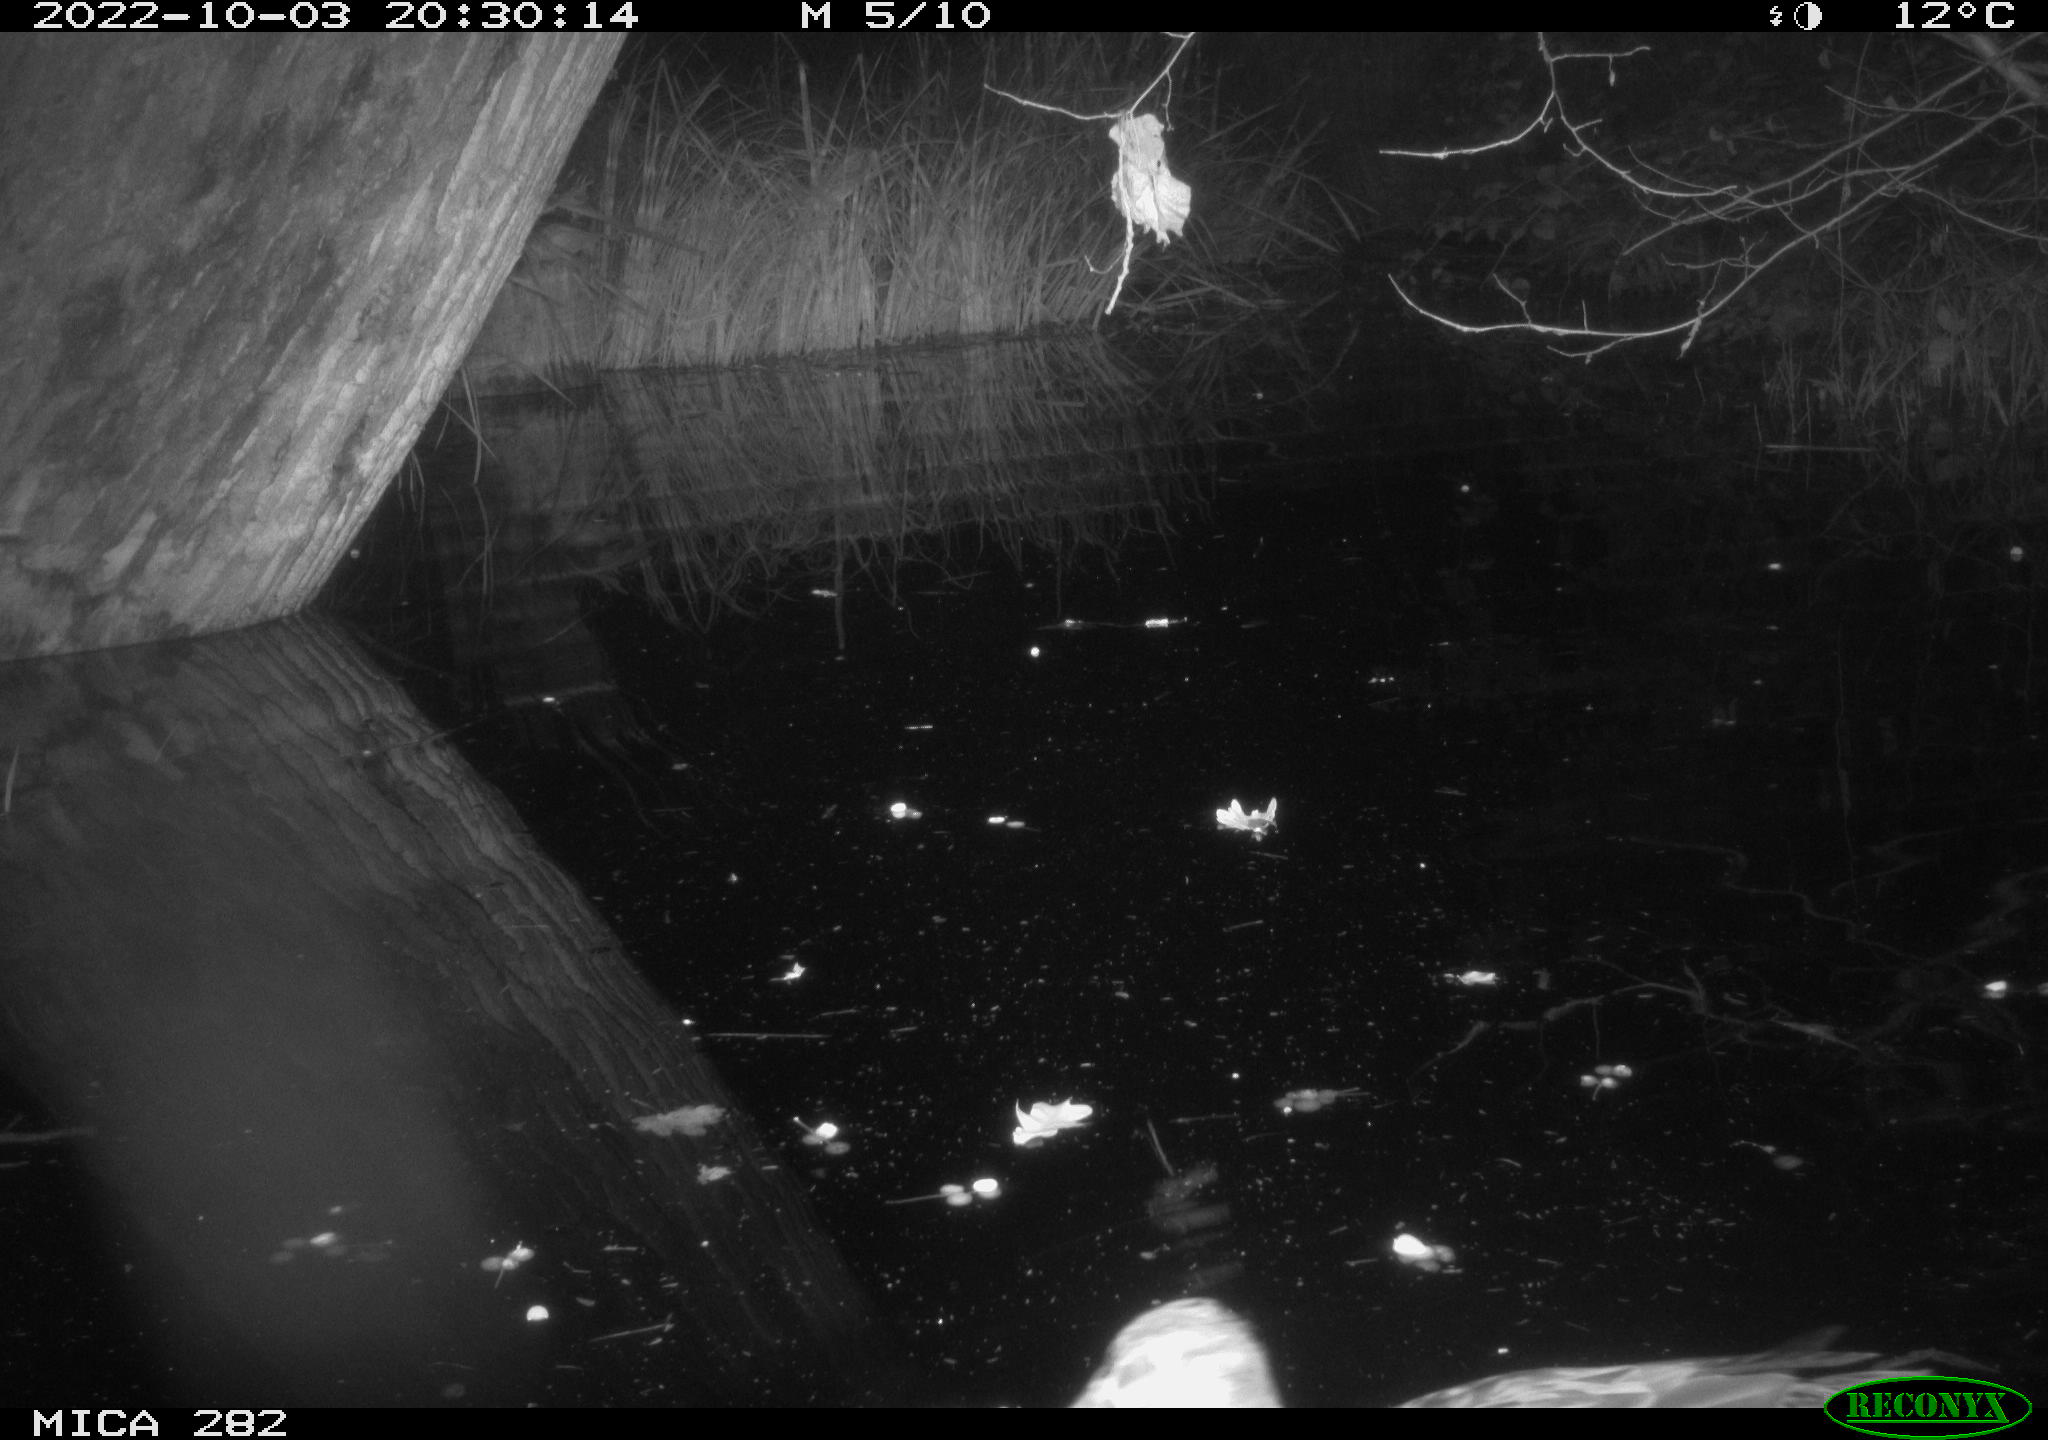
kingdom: Animalia
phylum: Chordata
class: Aves
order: Anseriformes
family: Anatidae
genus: Anas
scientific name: Anas
